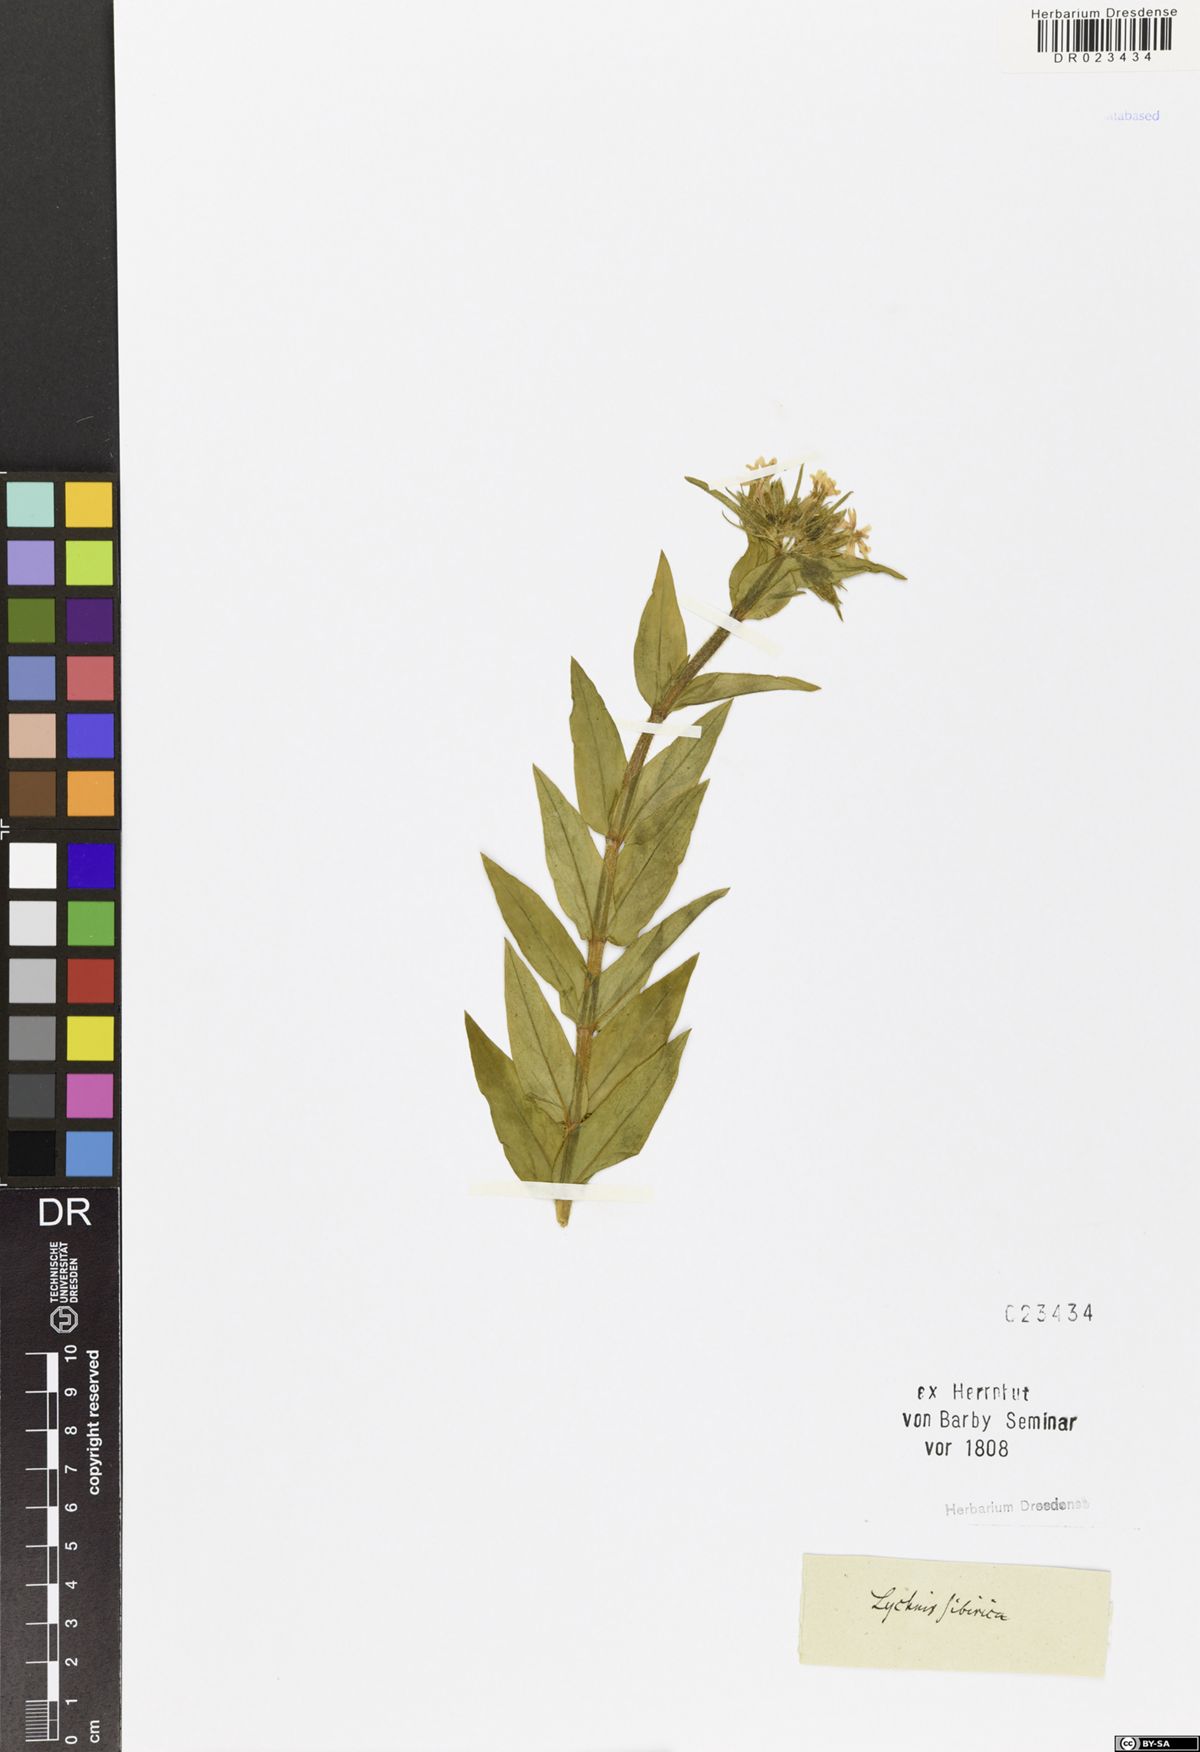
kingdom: Plantae
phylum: Tracheophyta
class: Magnoliopsida
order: Caryophyllales
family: Caryophyllaceae
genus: Silene
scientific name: Silene chalcedonica
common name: Maltese-cross
